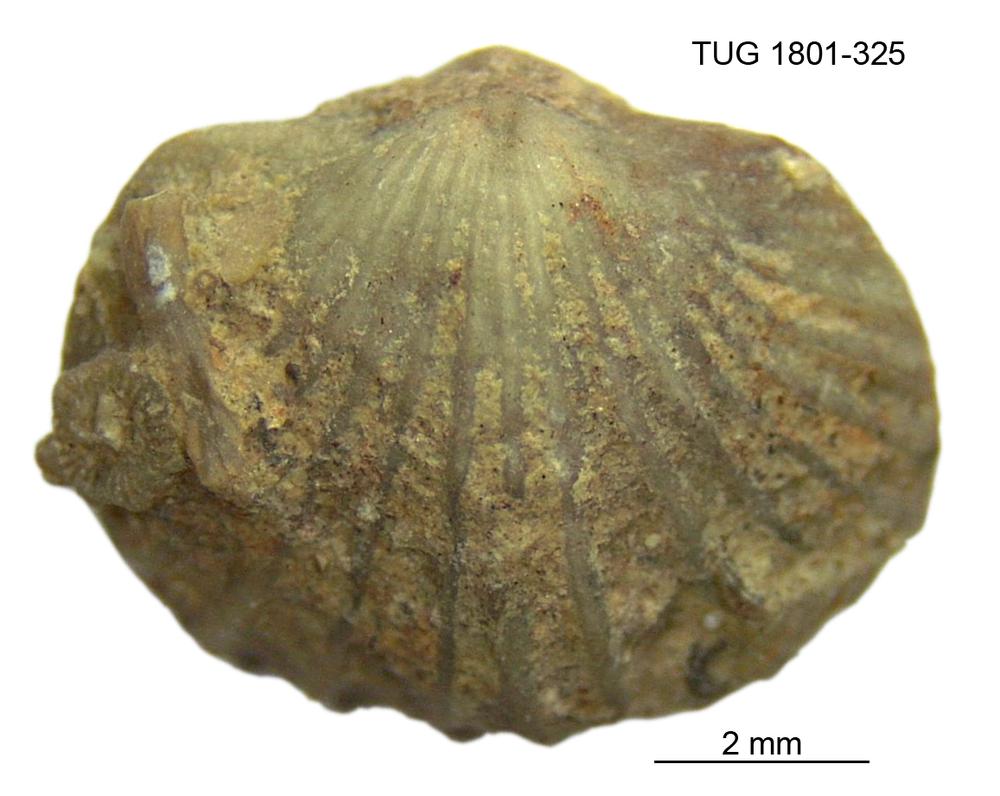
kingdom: Animalia
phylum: Brachiopoda
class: Rhynchonellata
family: Plectorthidae
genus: Platystrophia
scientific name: Platystrophia dentata
